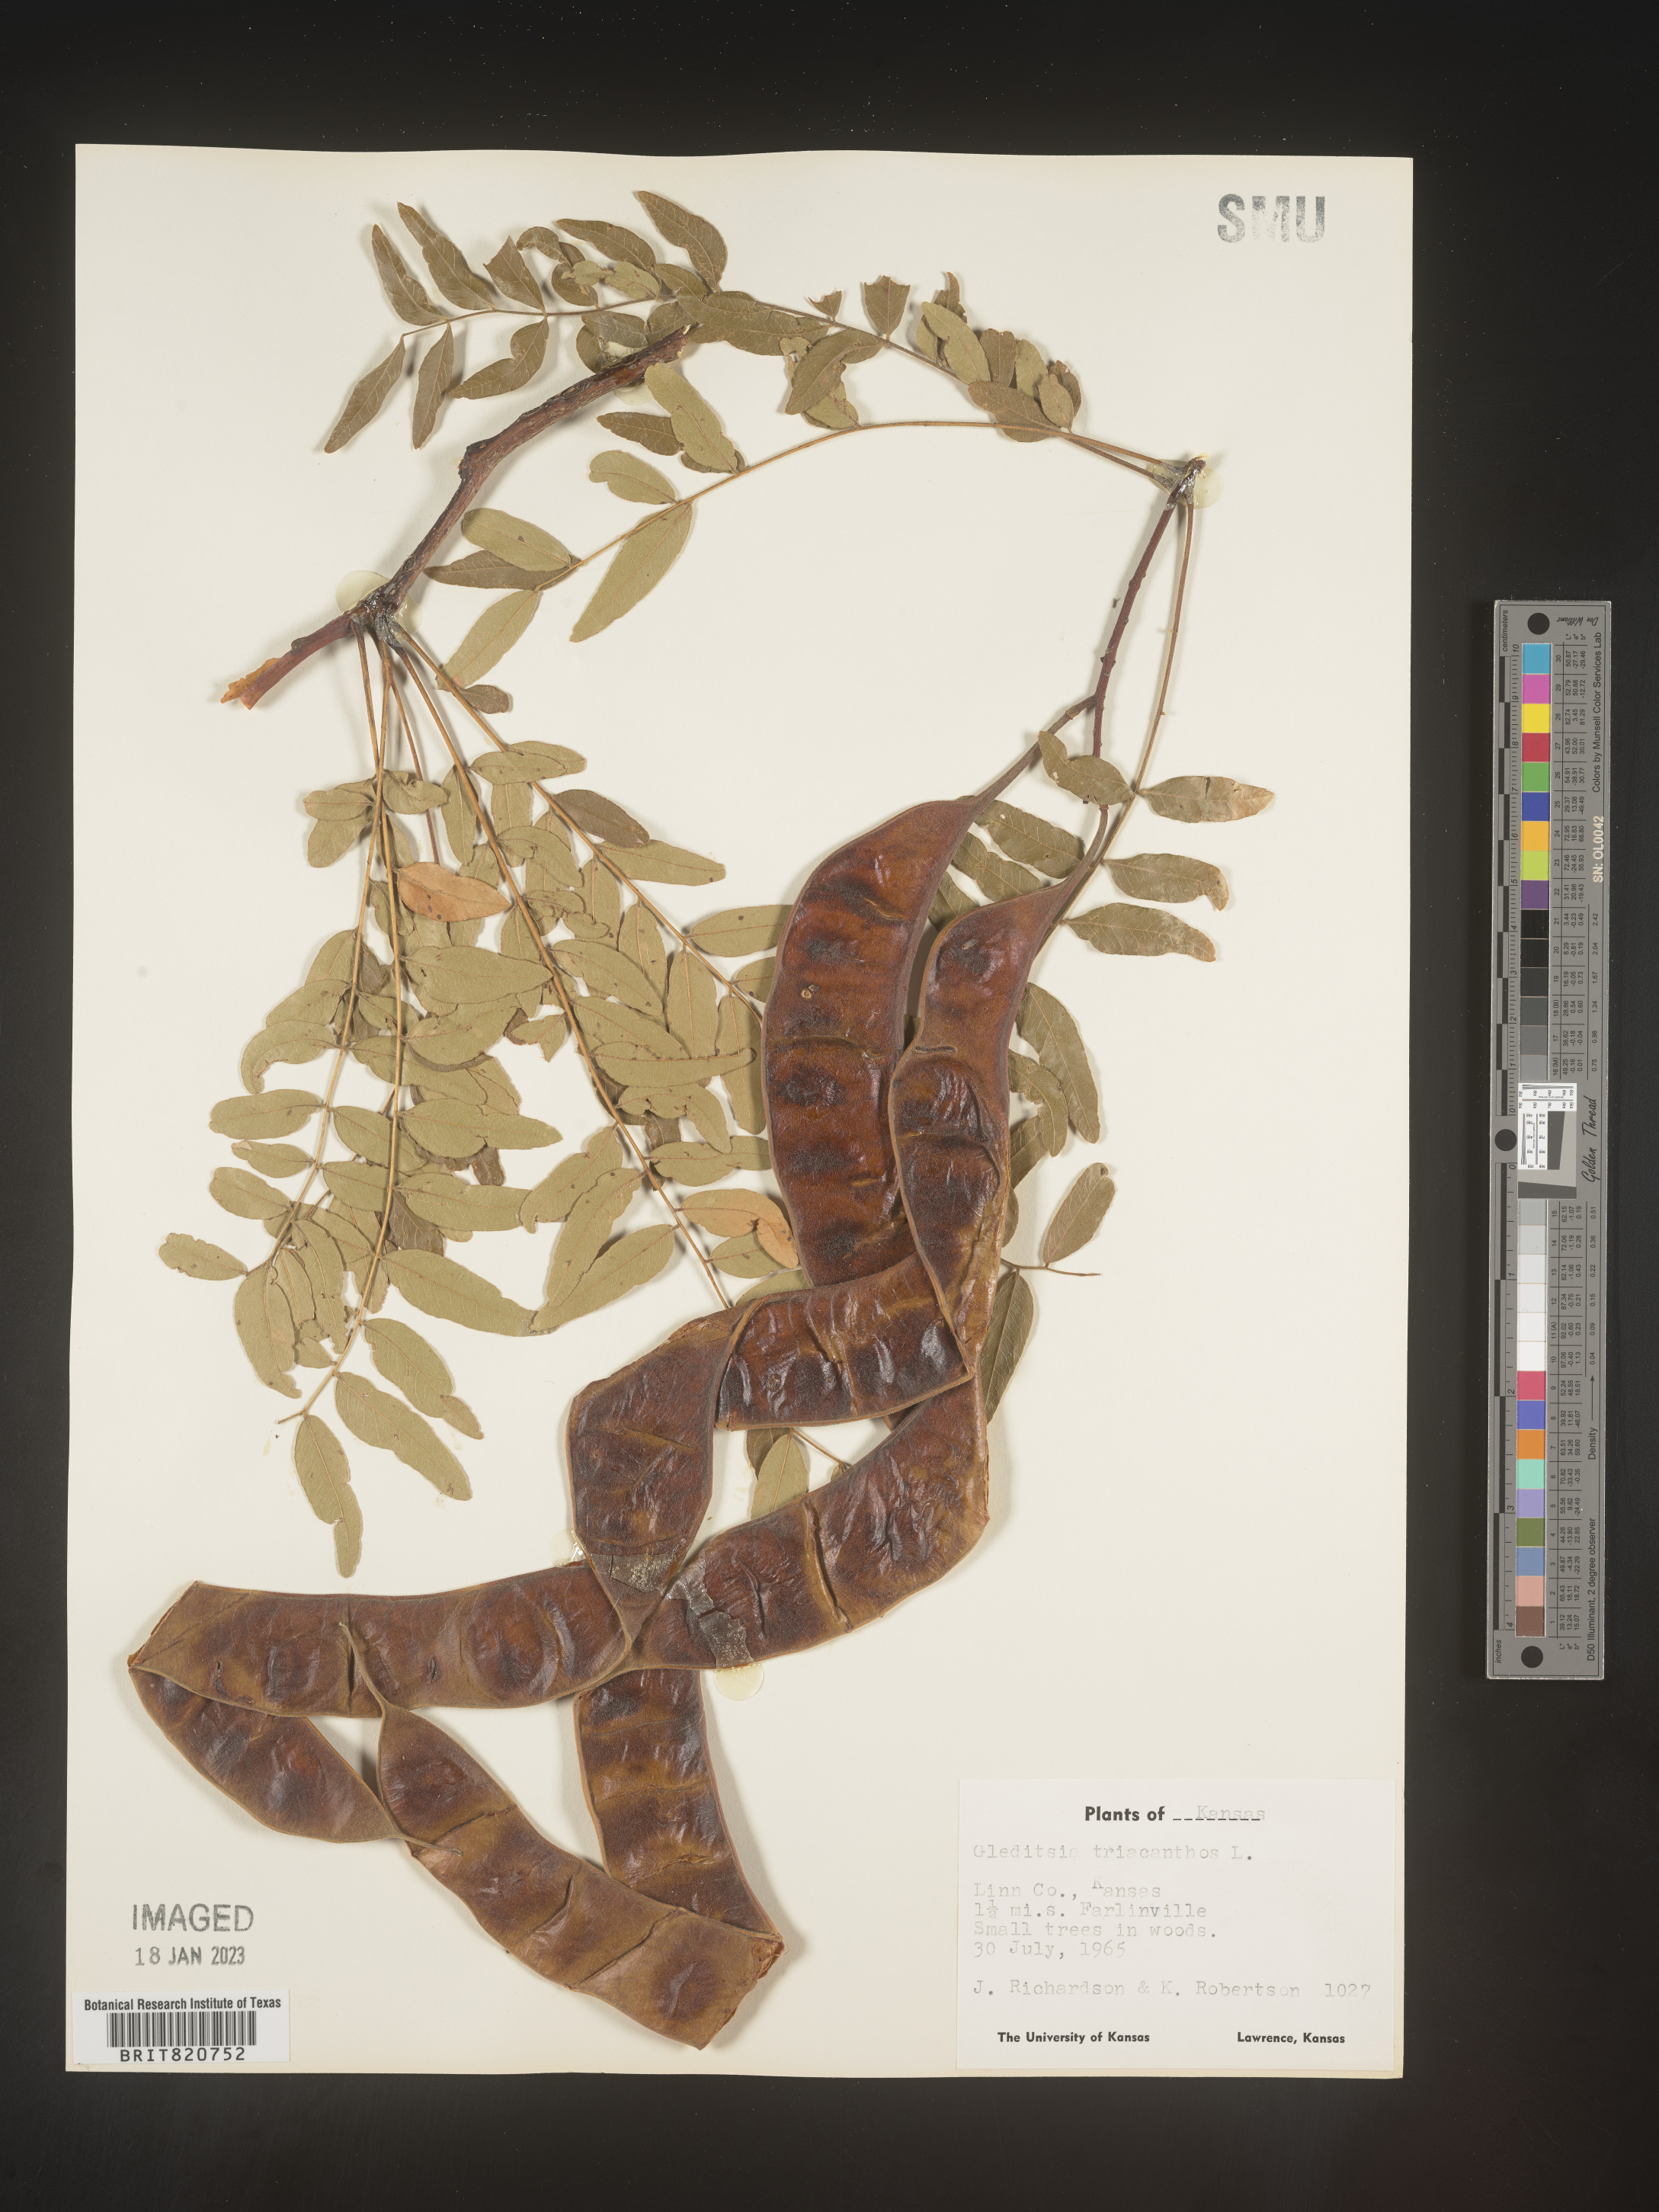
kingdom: Plantae
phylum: Tracheophyta
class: Magnoliopsida
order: Fabales
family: Fabaceae
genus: Gleditsia
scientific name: Gleditsia triacanthos
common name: Common honeylocust
